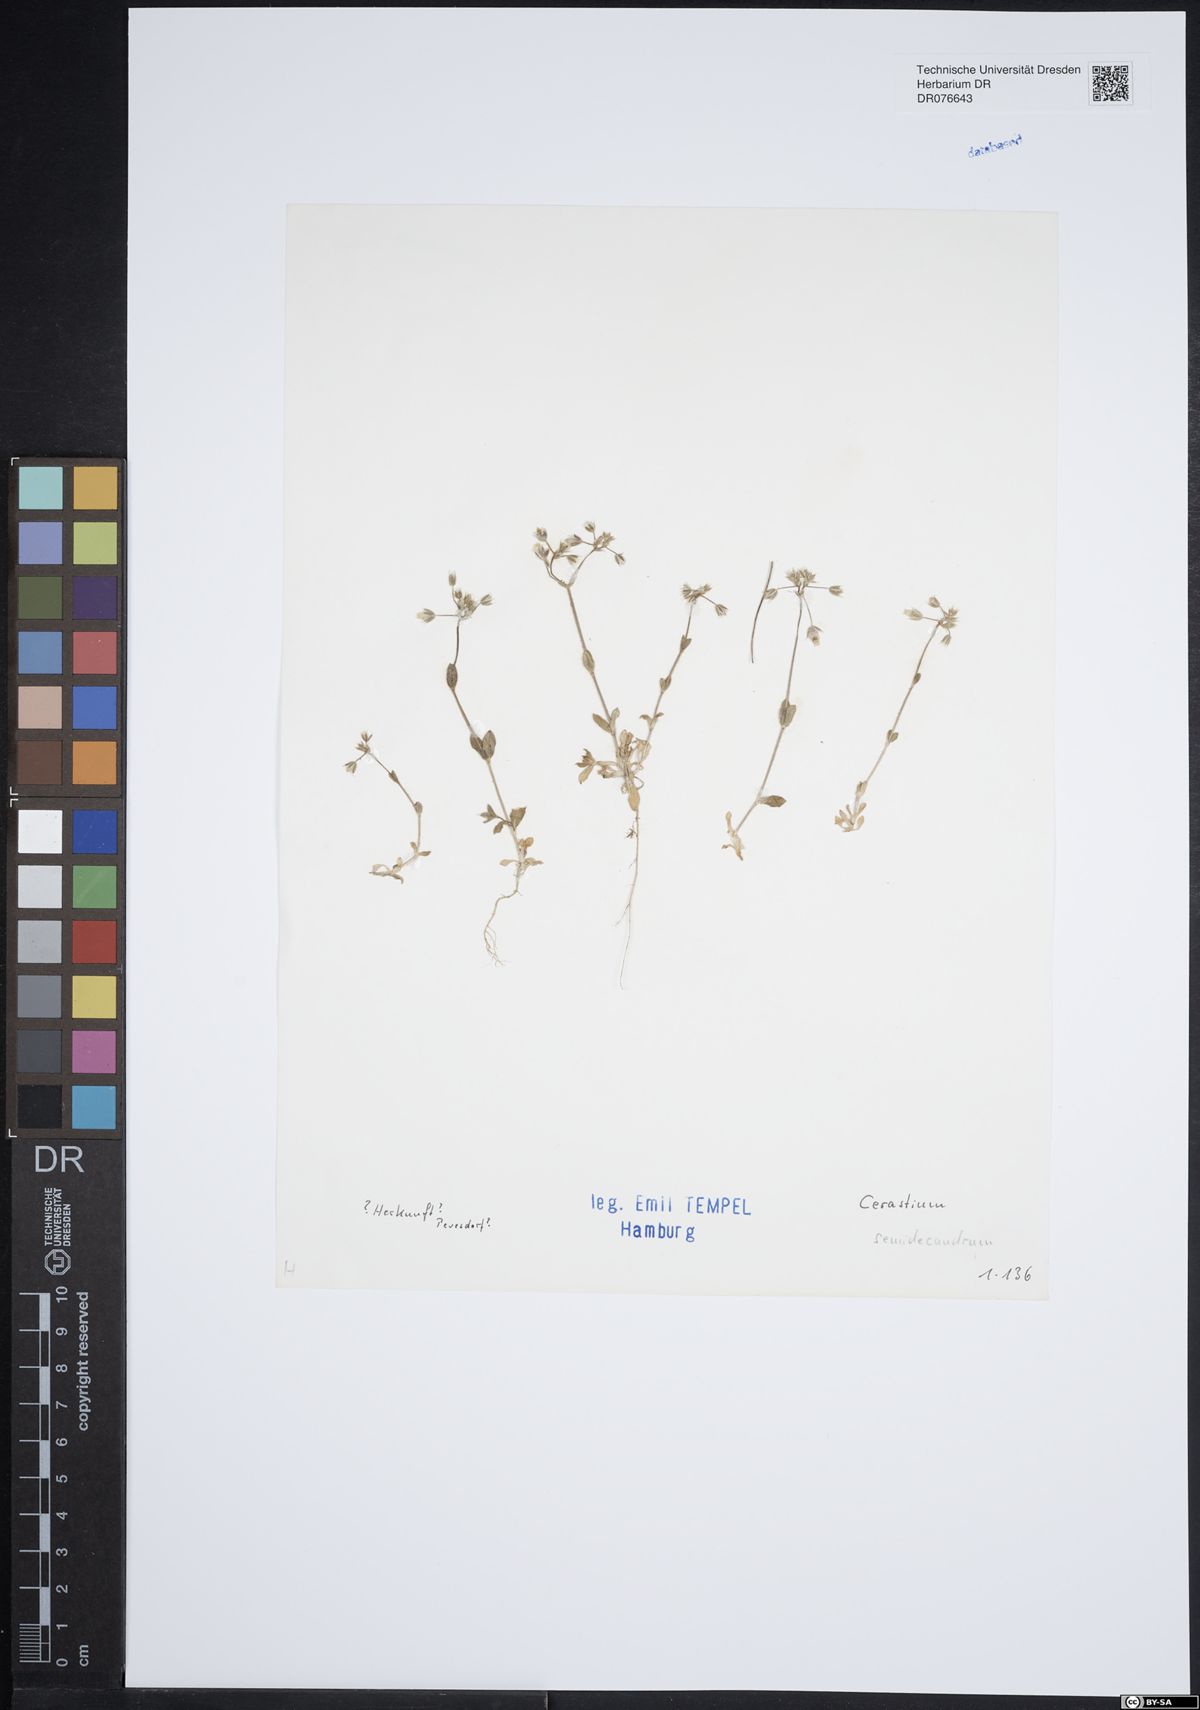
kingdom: Plantae
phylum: Tracheophyta
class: Magnoliopsida
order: Caryophyllales
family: Caryophyllaceae
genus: Cerastium
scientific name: Cerastium semidecandrum
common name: Little mouse-ear
